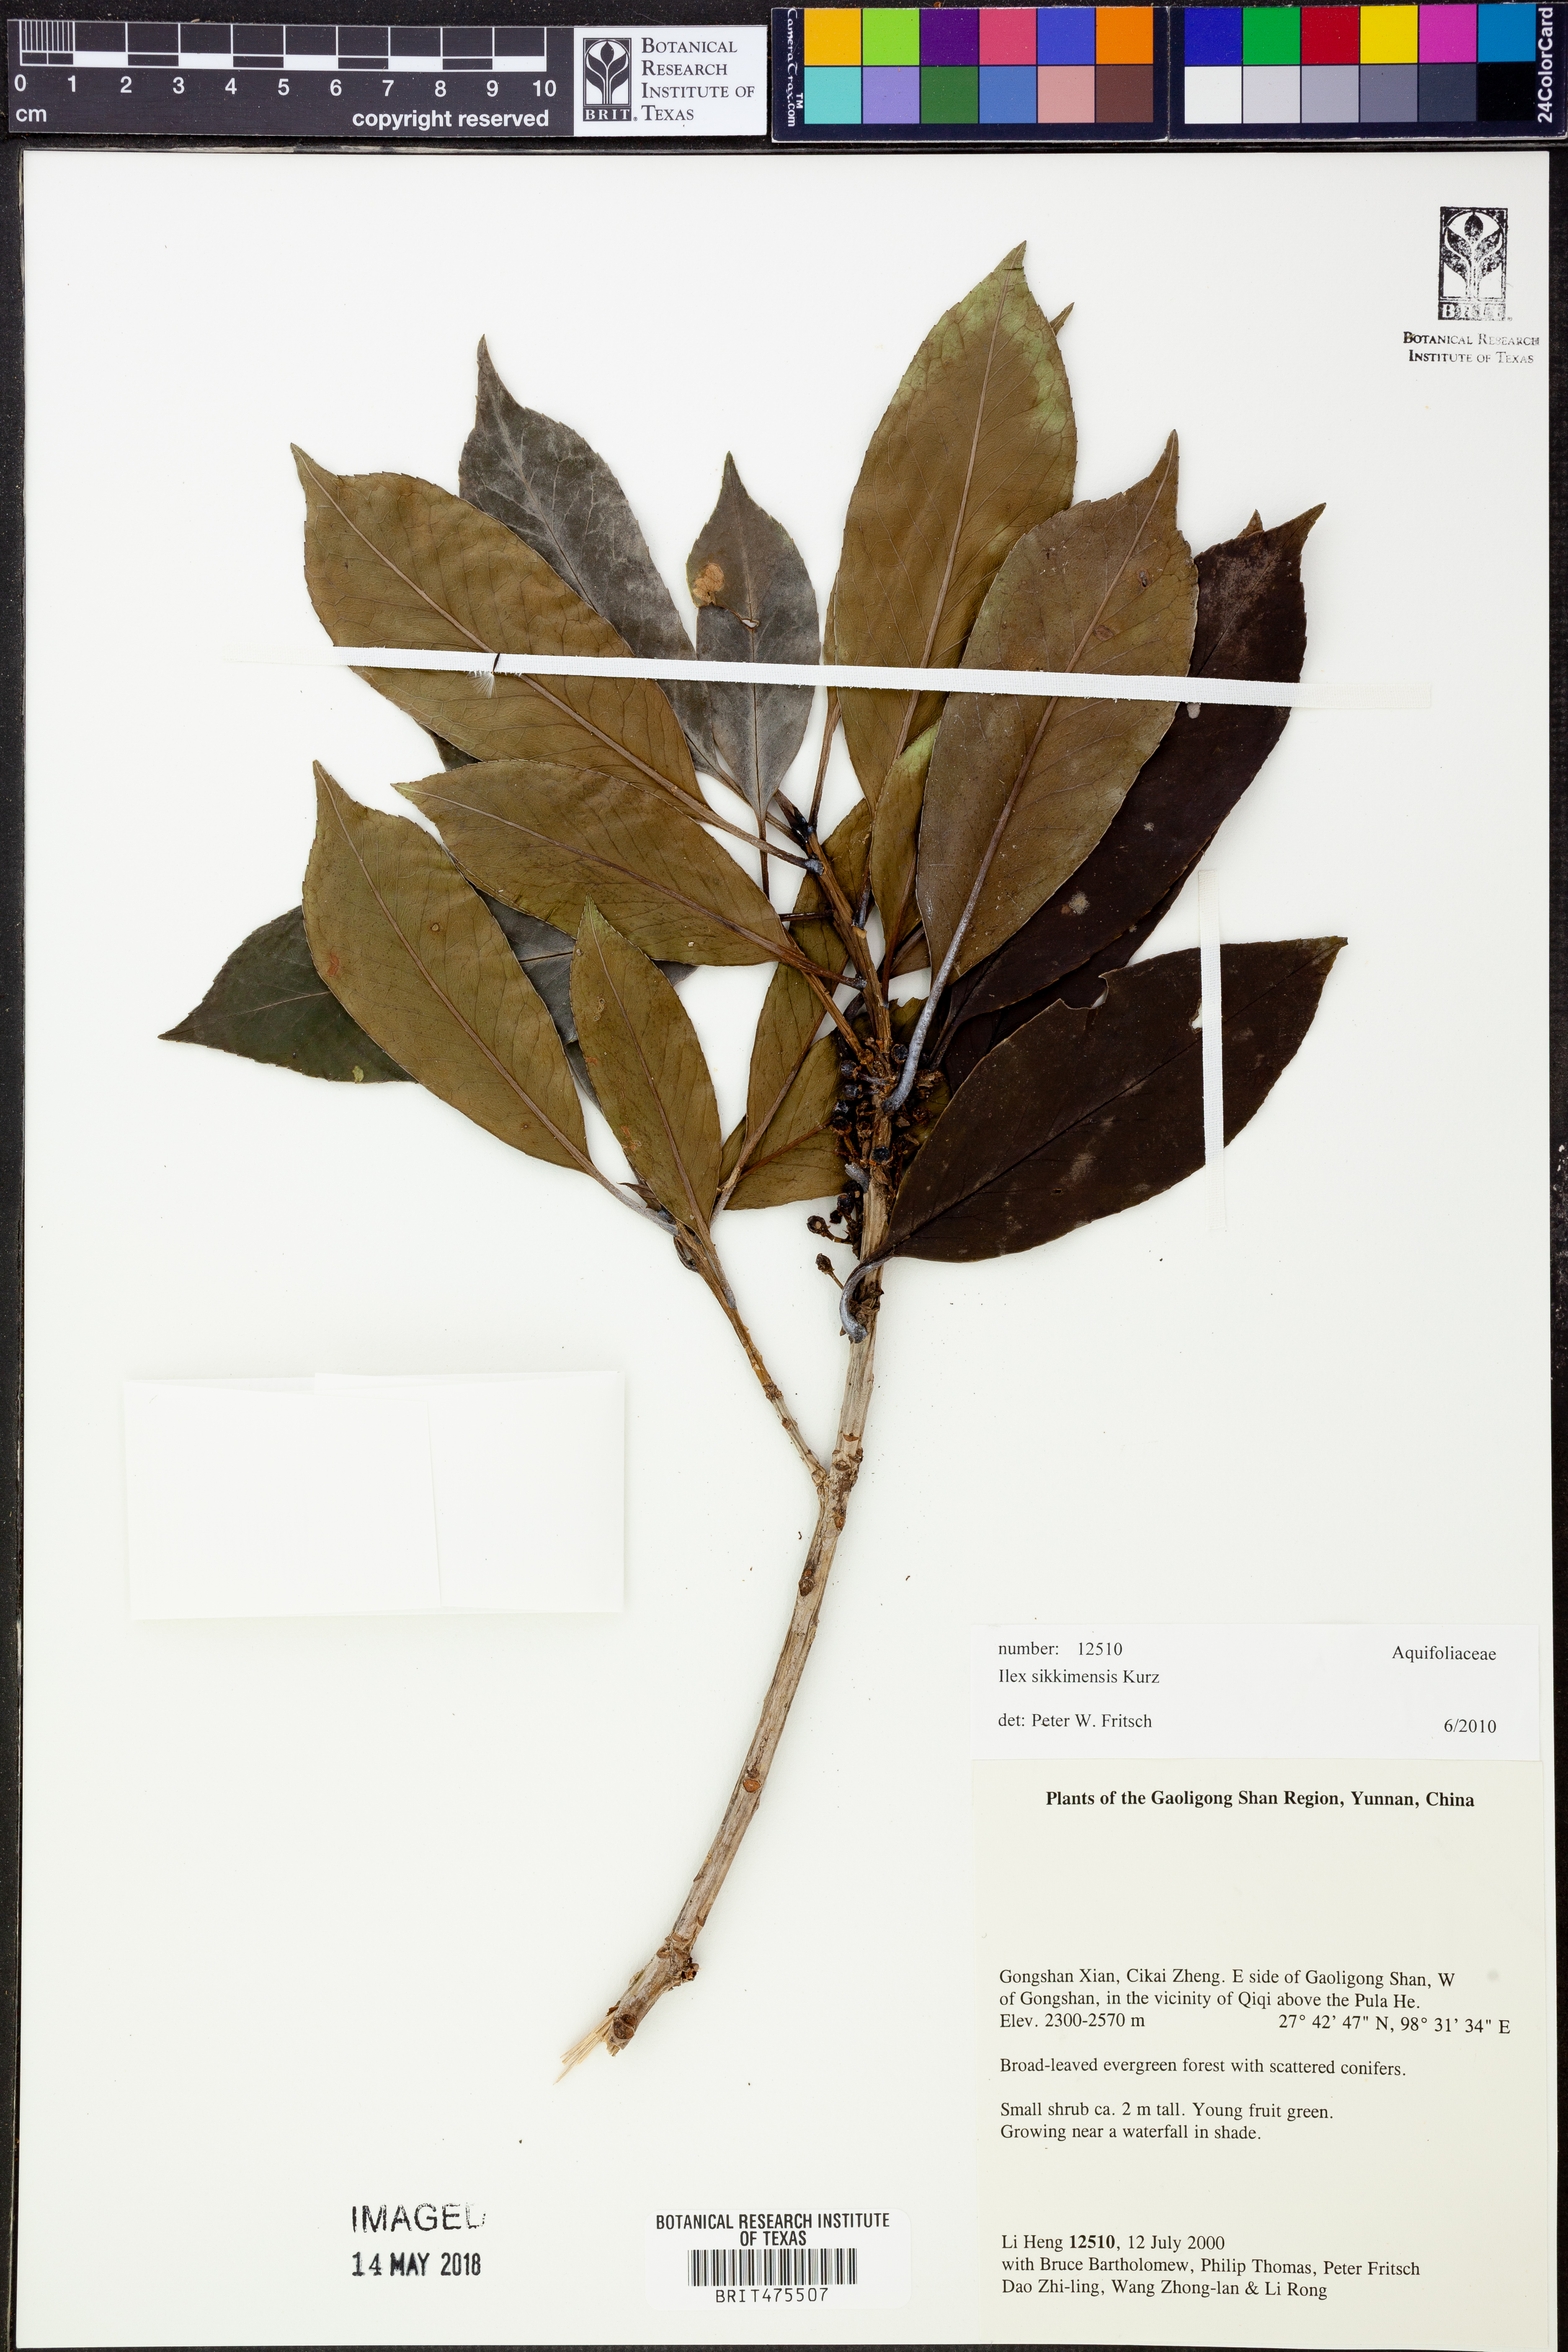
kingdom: Plantae
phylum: Tracheophyta
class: Magnoliopsida
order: Aquifoliales
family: Aquifoliaceae
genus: Ilex
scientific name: Ilex sikkimensis
